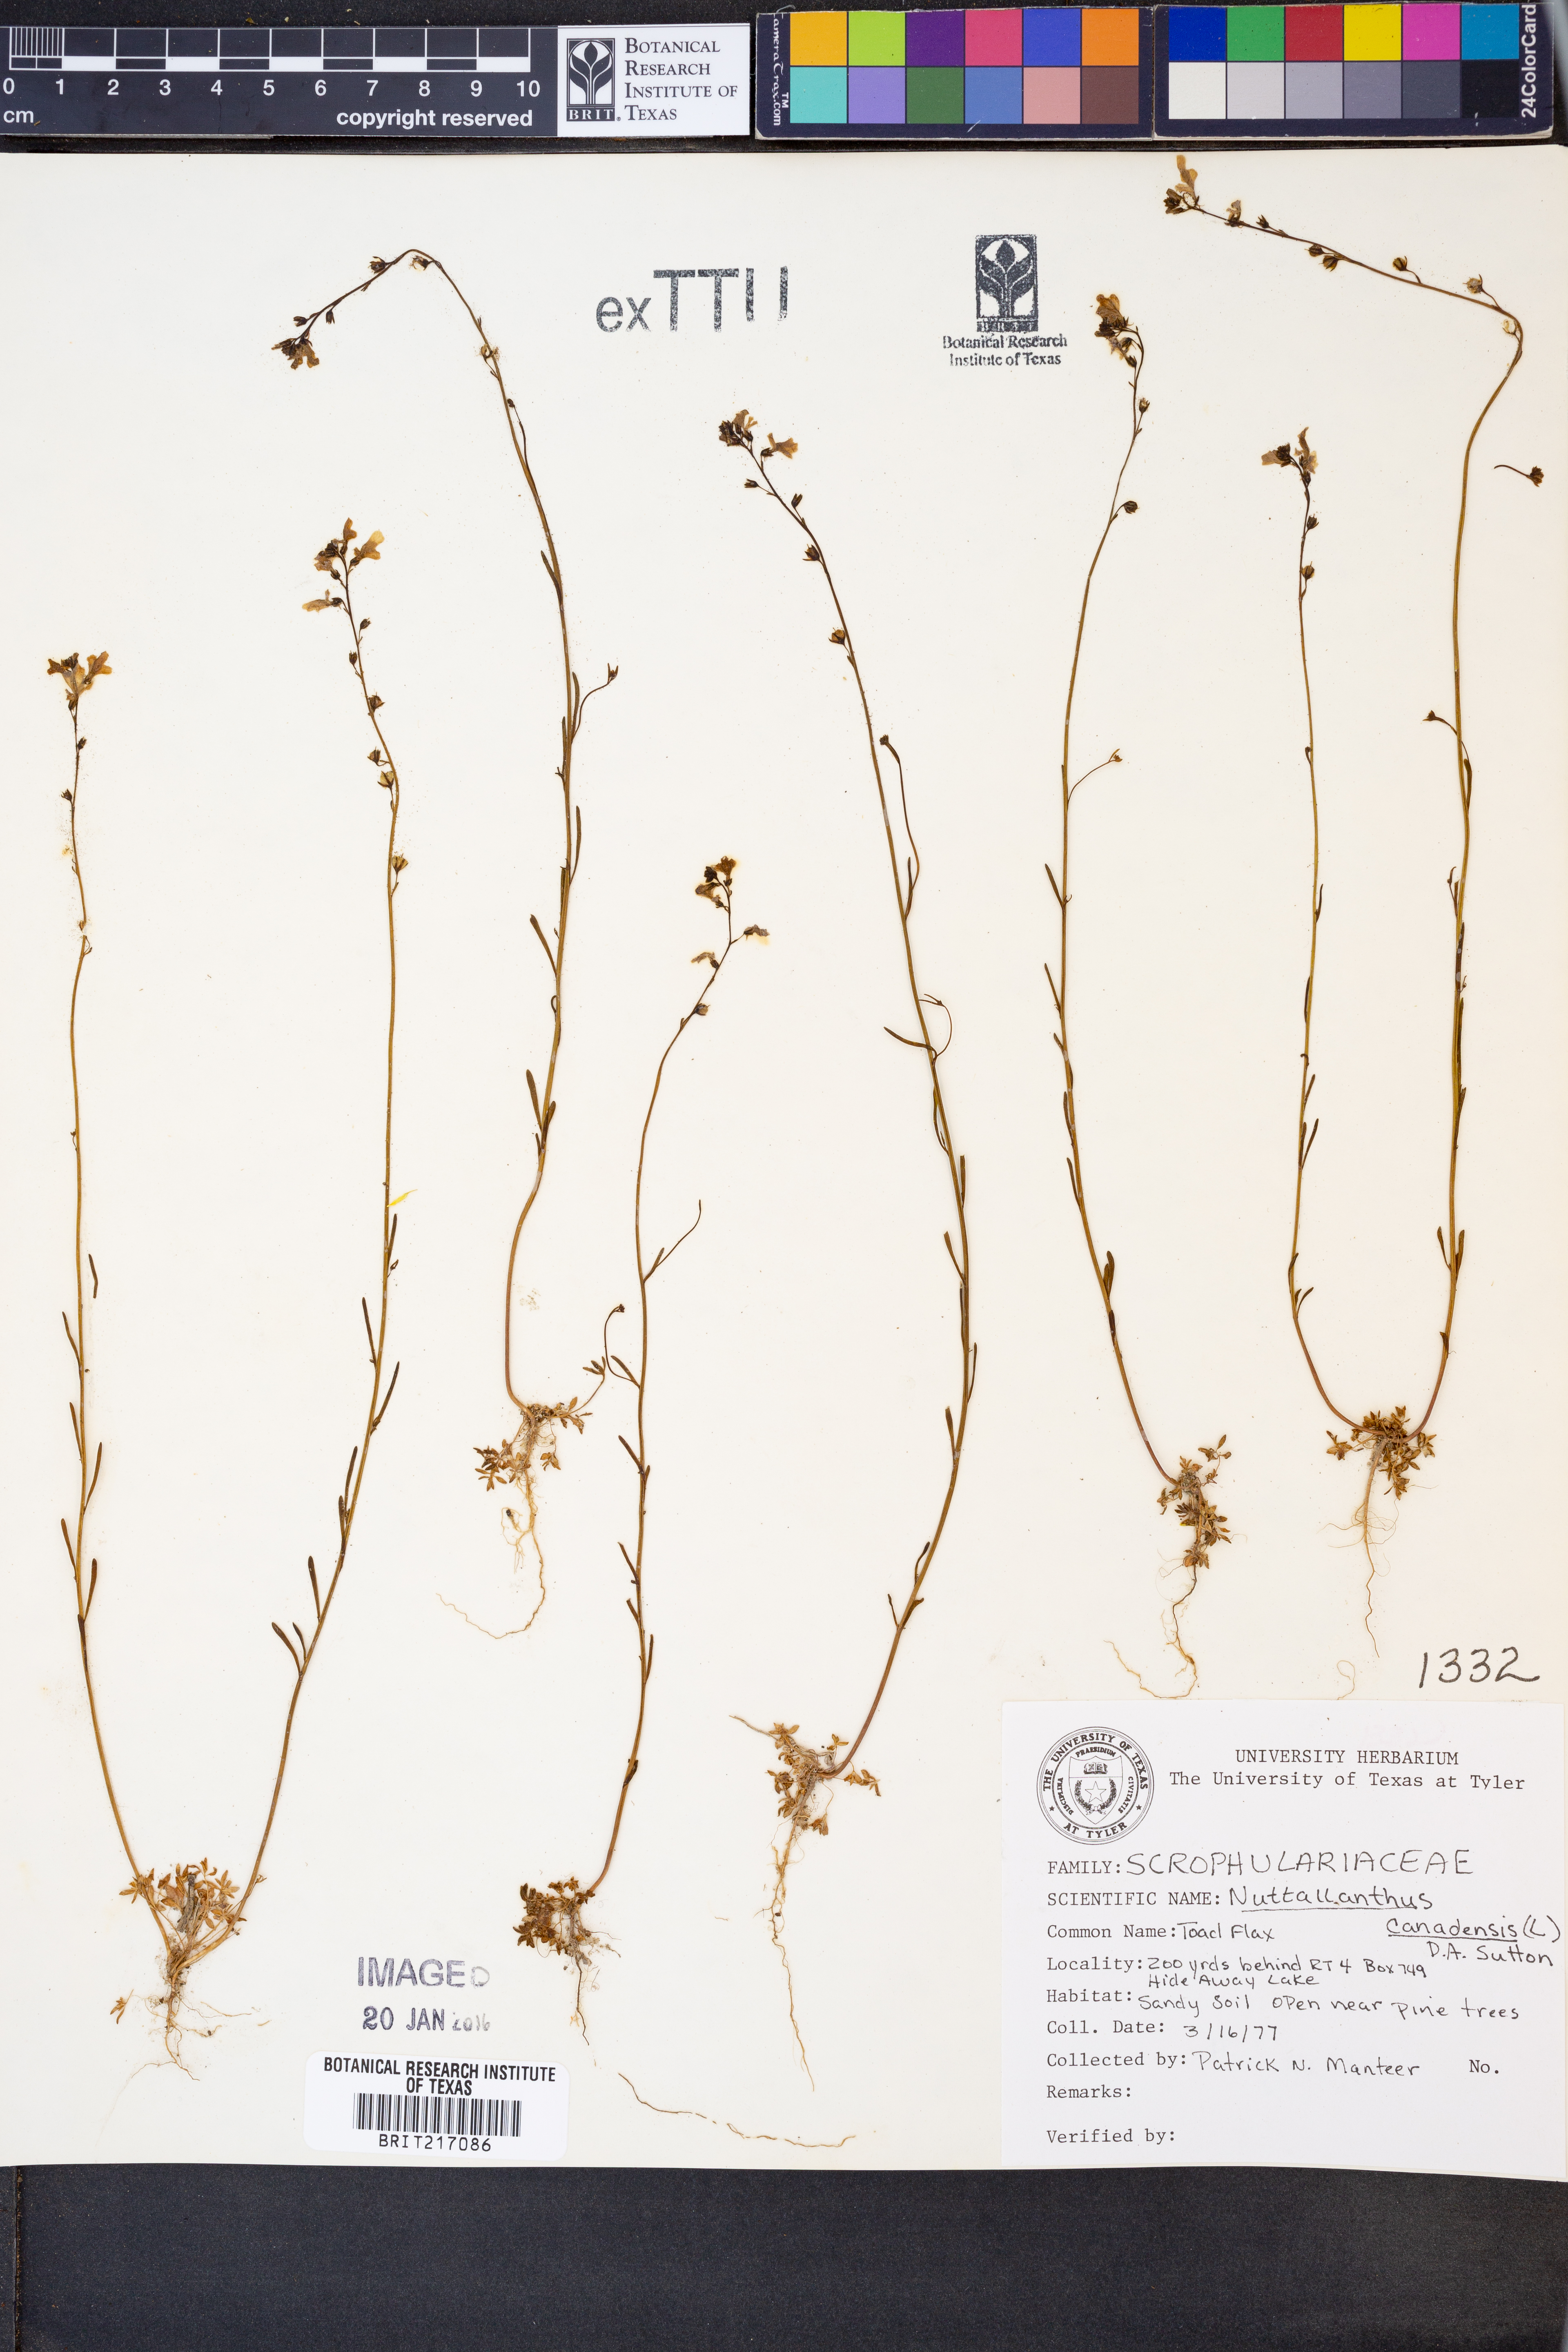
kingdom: Plantae
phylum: Tracheophyta
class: Magnoliopsida
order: Lamiales
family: Plantaginaceae
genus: Nuttallanthus
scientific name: Nuttallanthus canadensis
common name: Blue toadflax
